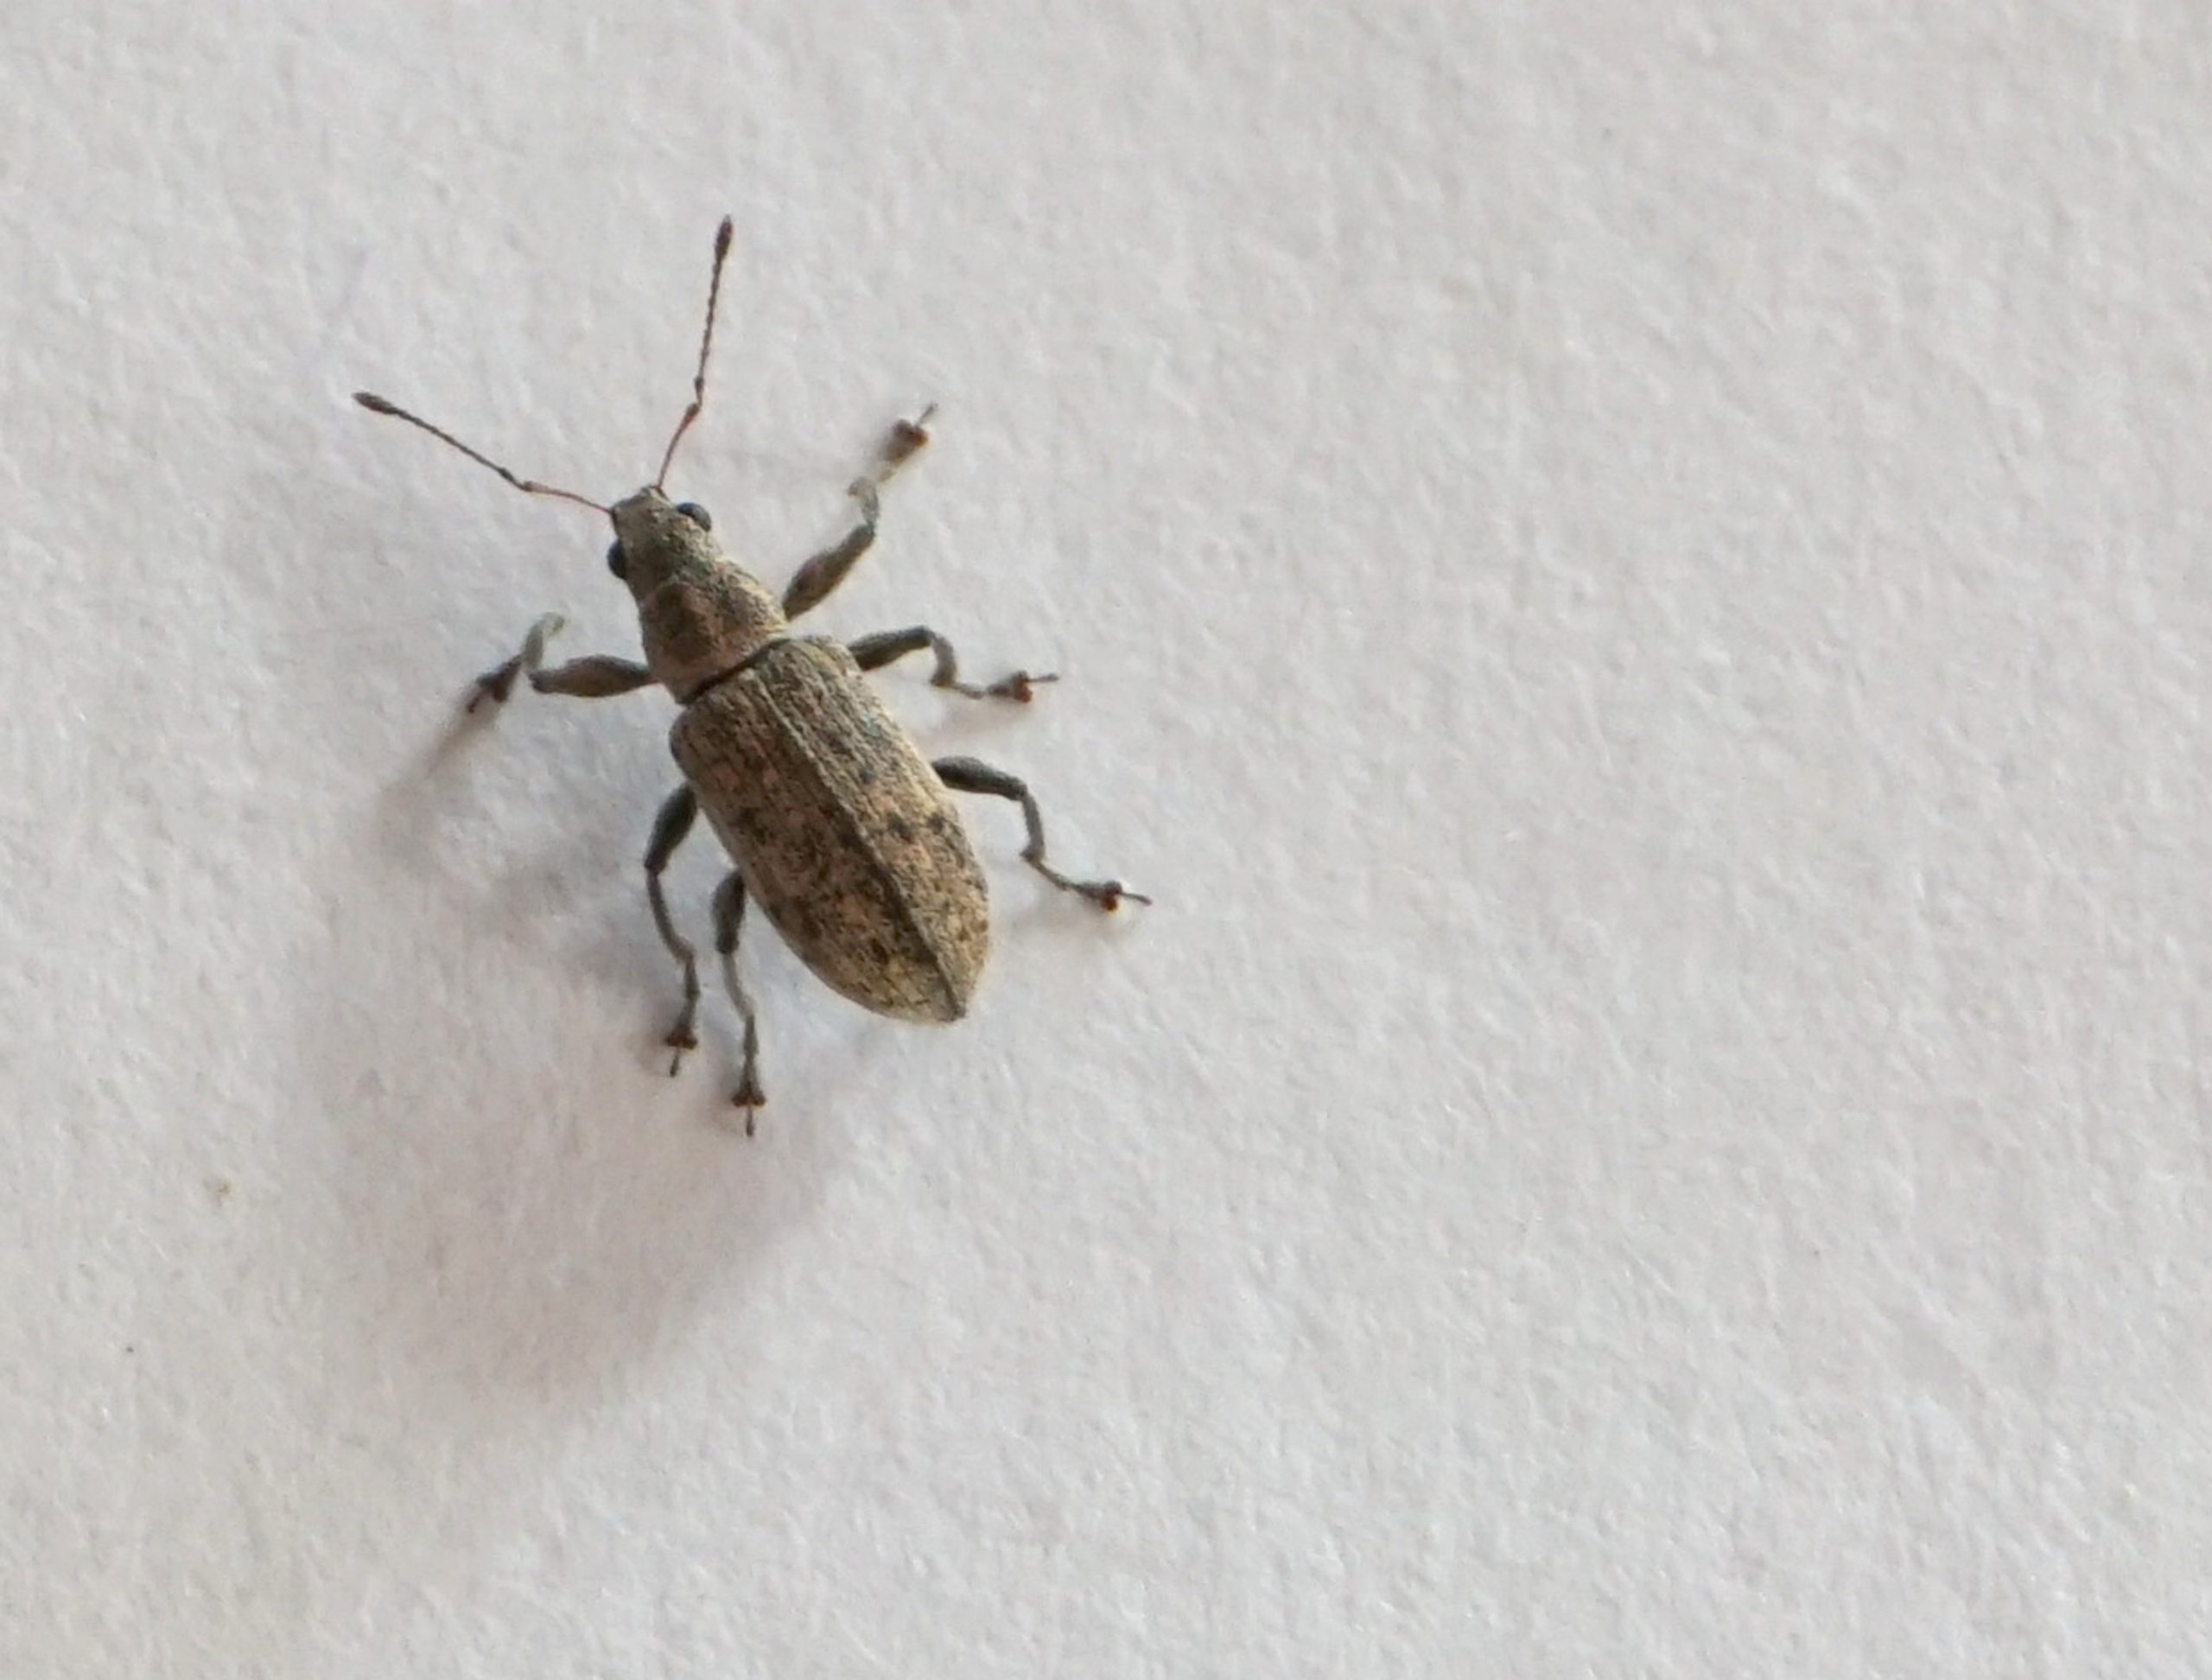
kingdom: Animalia
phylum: Arthropoda
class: Insecta
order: Coleoptera
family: Curculionidae
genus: Polydrusus
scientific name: Polydrusus cervinus
